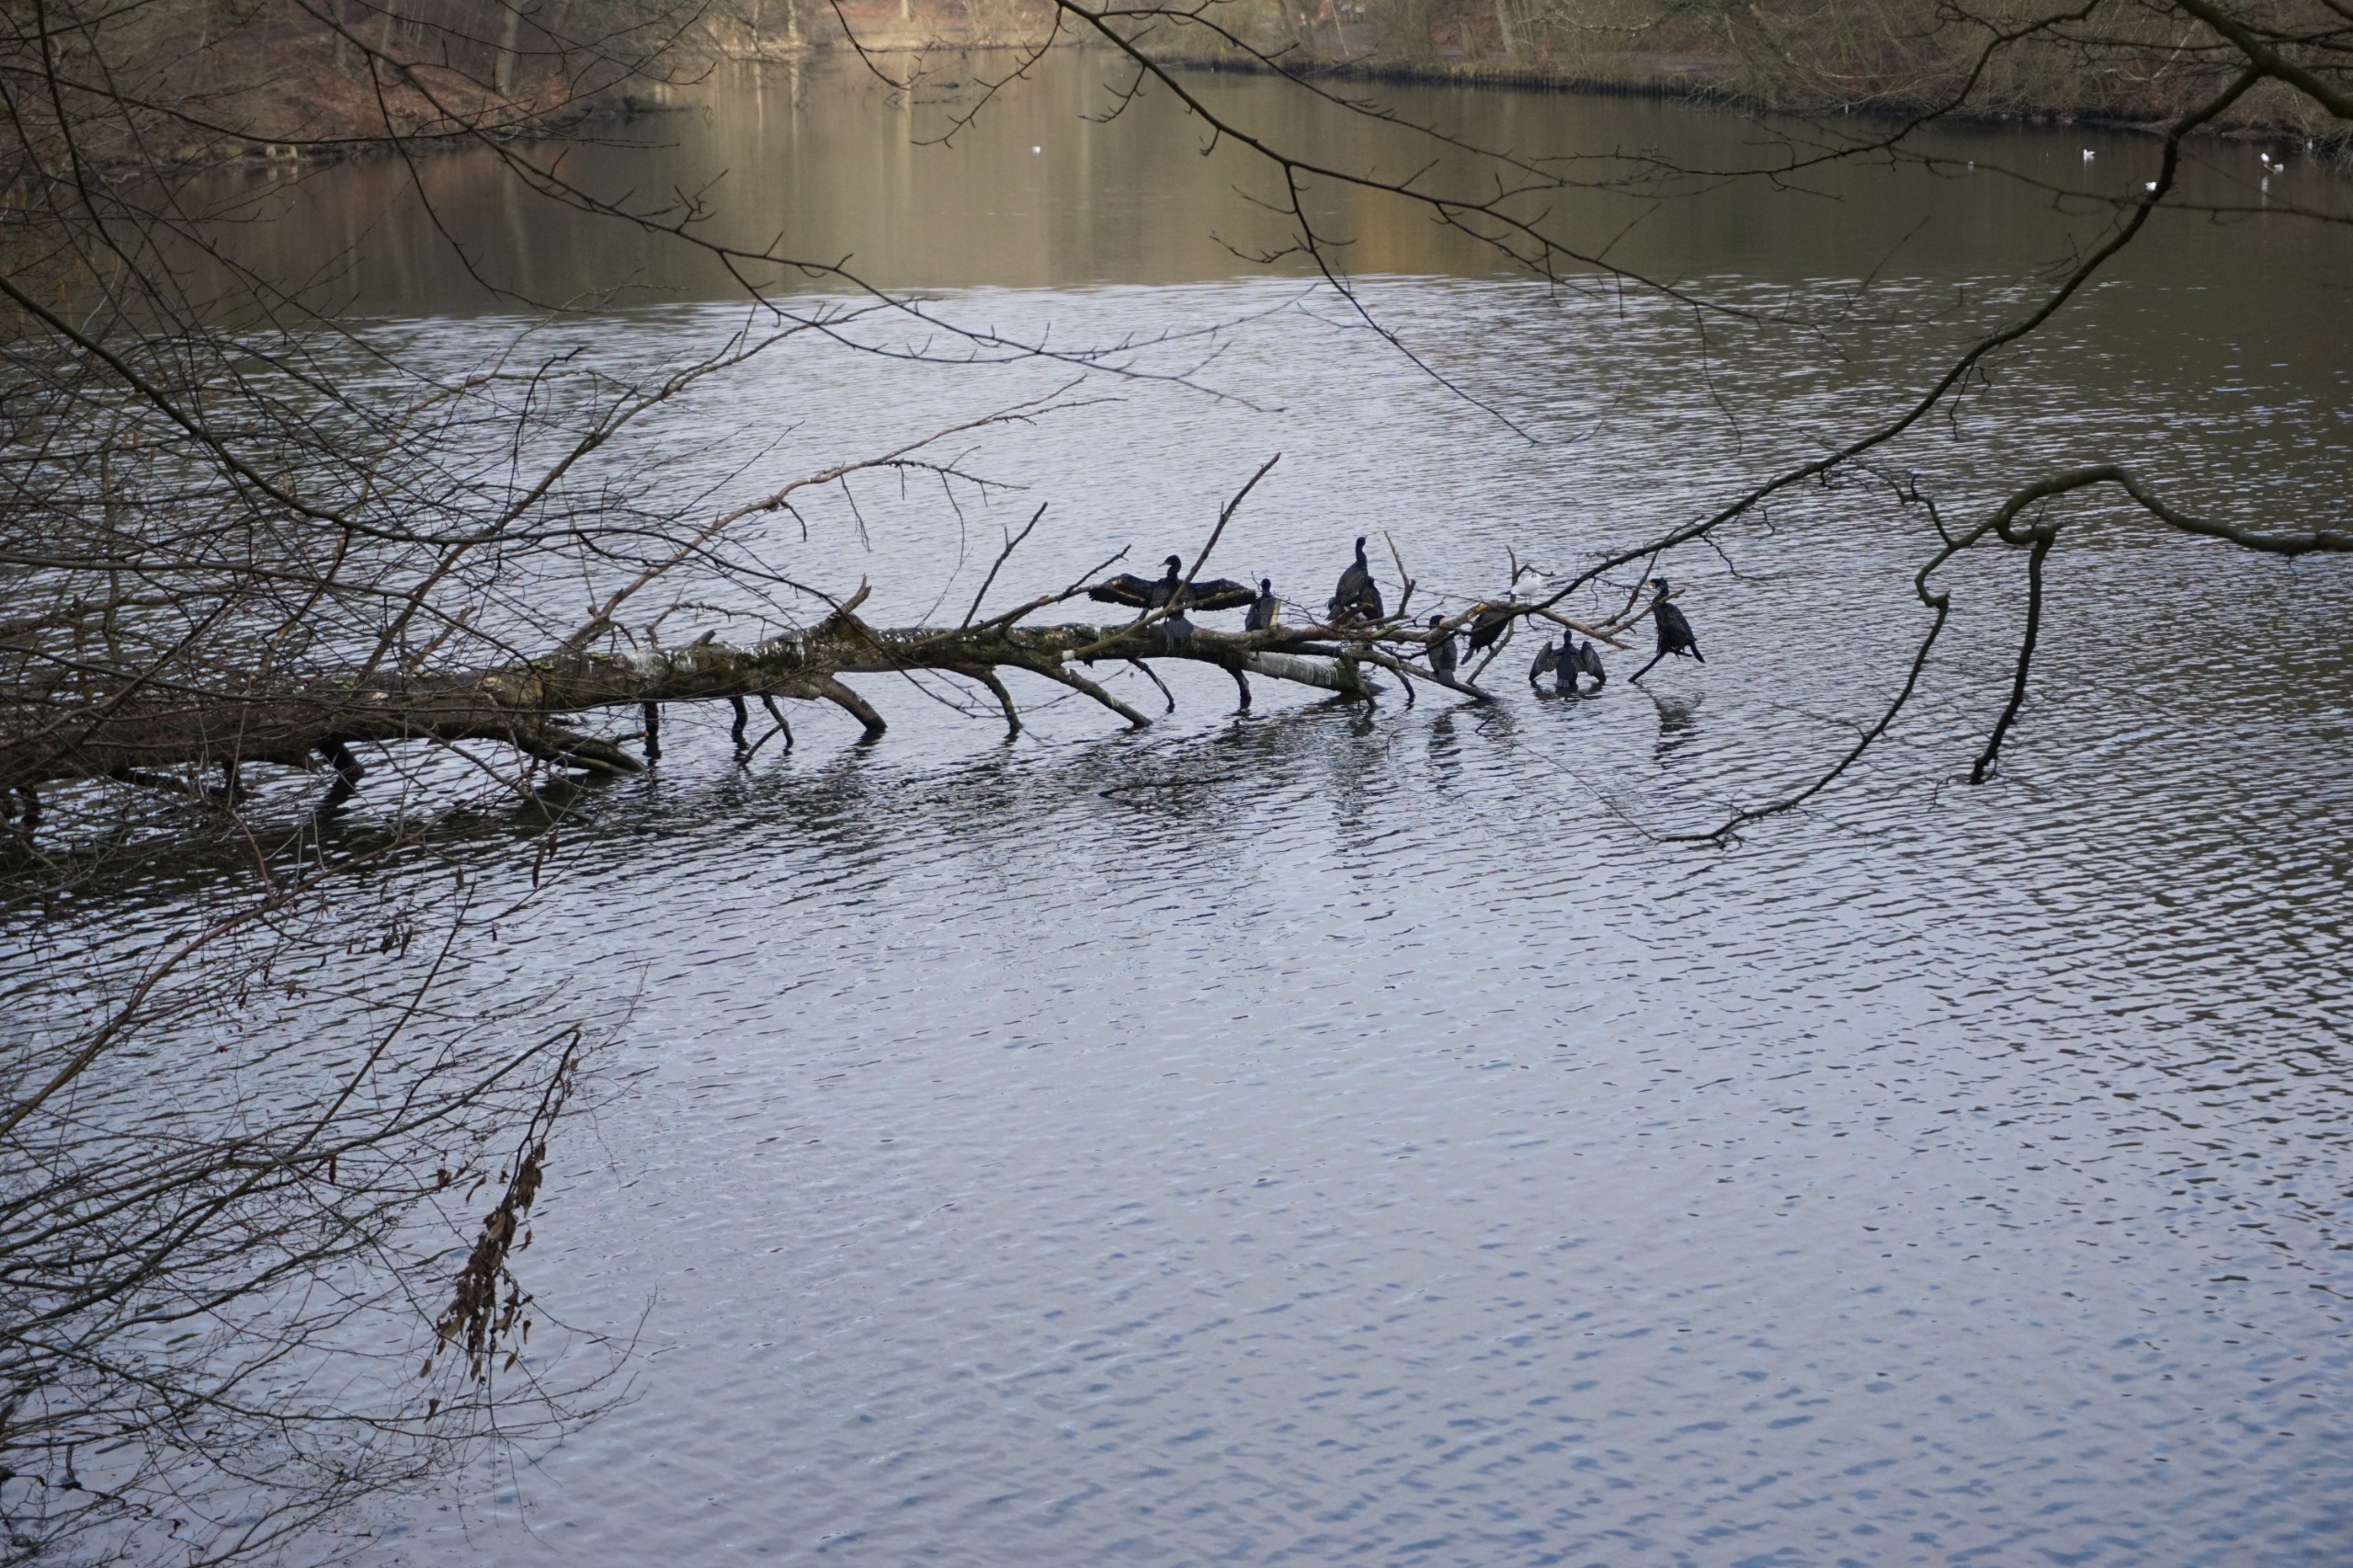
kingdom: Animalia
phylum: Chordata
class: Aves
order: Suliformes
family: Phalacrocoracidae
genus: Phalacrocorax
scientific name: Phalacrocorax carbo
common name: Skarv
